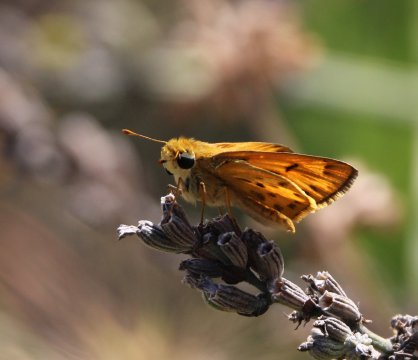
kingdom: Animalia
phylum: Arthropoda
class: Insecta
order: Lepidoptera
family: Hesperiidae
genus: Hylephila
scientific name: Hylephila phyleus
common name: Fiery Skipper
